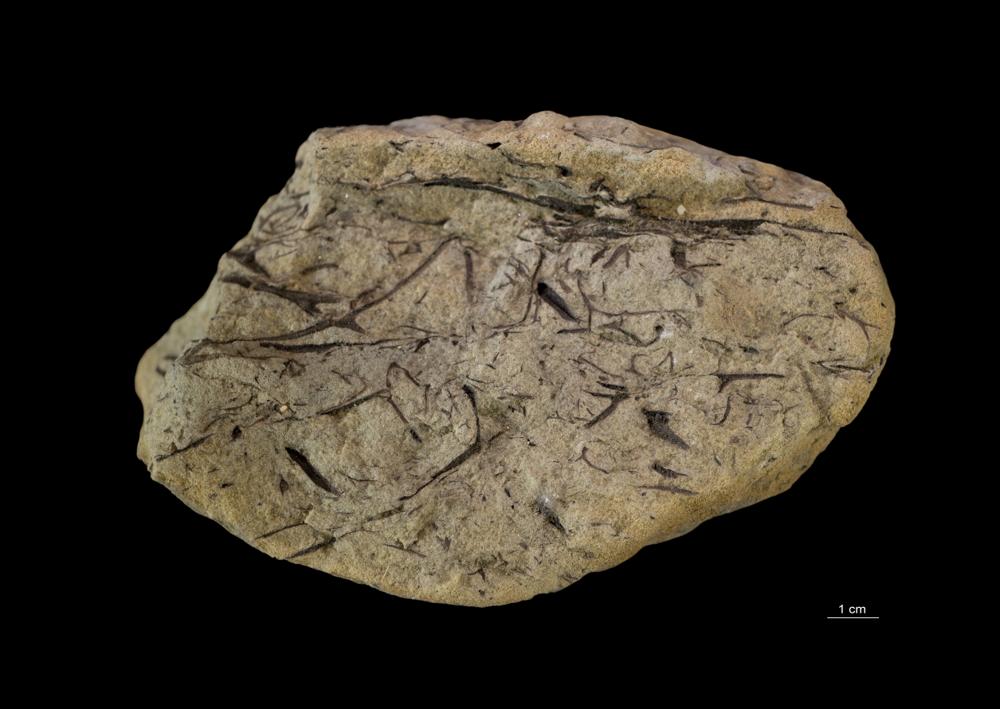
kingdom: Plantae
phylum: Tracheophyta
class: Lycopodiopsida
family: Asteroxylaceae
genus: Asteroxylon
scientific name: Asteroxylon
